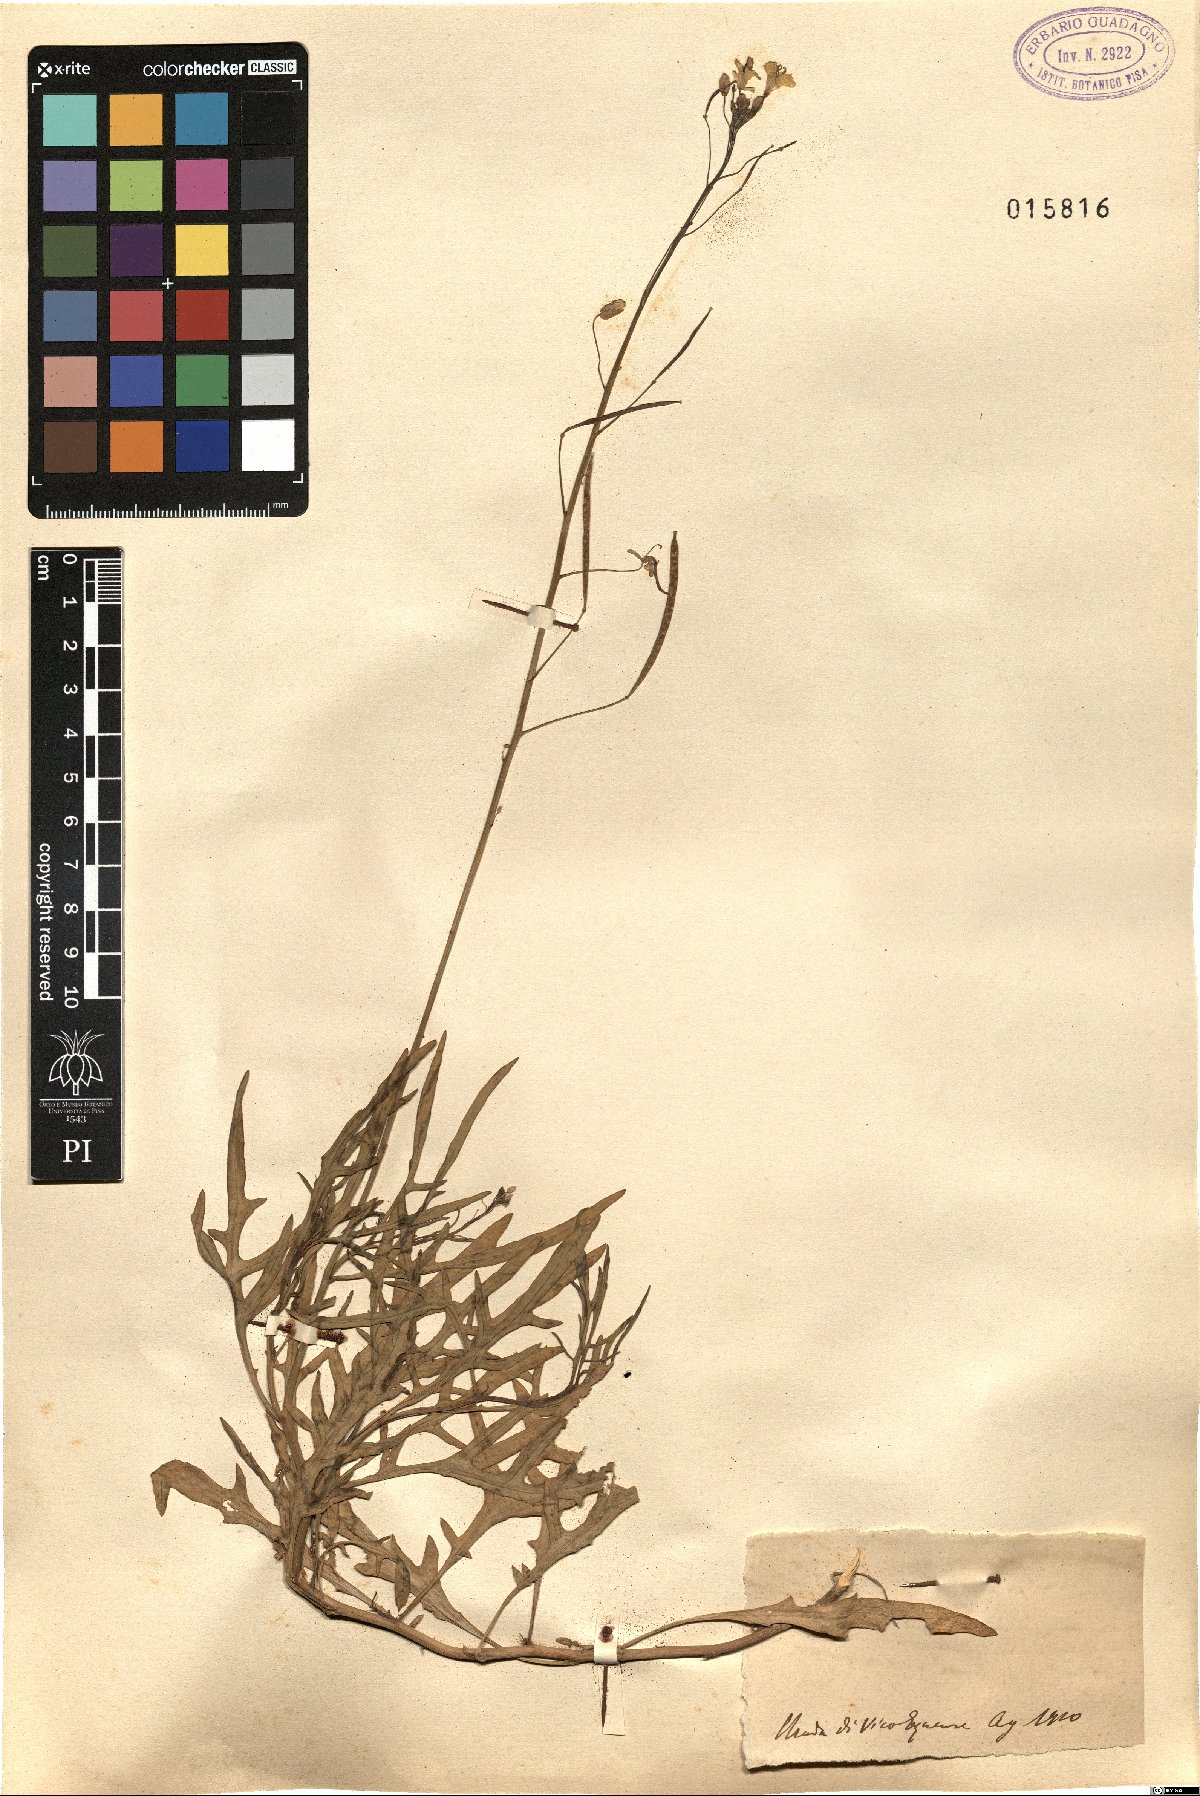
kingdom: Plantae
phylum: Tracheophyta
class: Magnoliopsida
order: Brassicales
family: Brassicaceae
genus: Diplotaxis
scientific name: Diplotaxis
